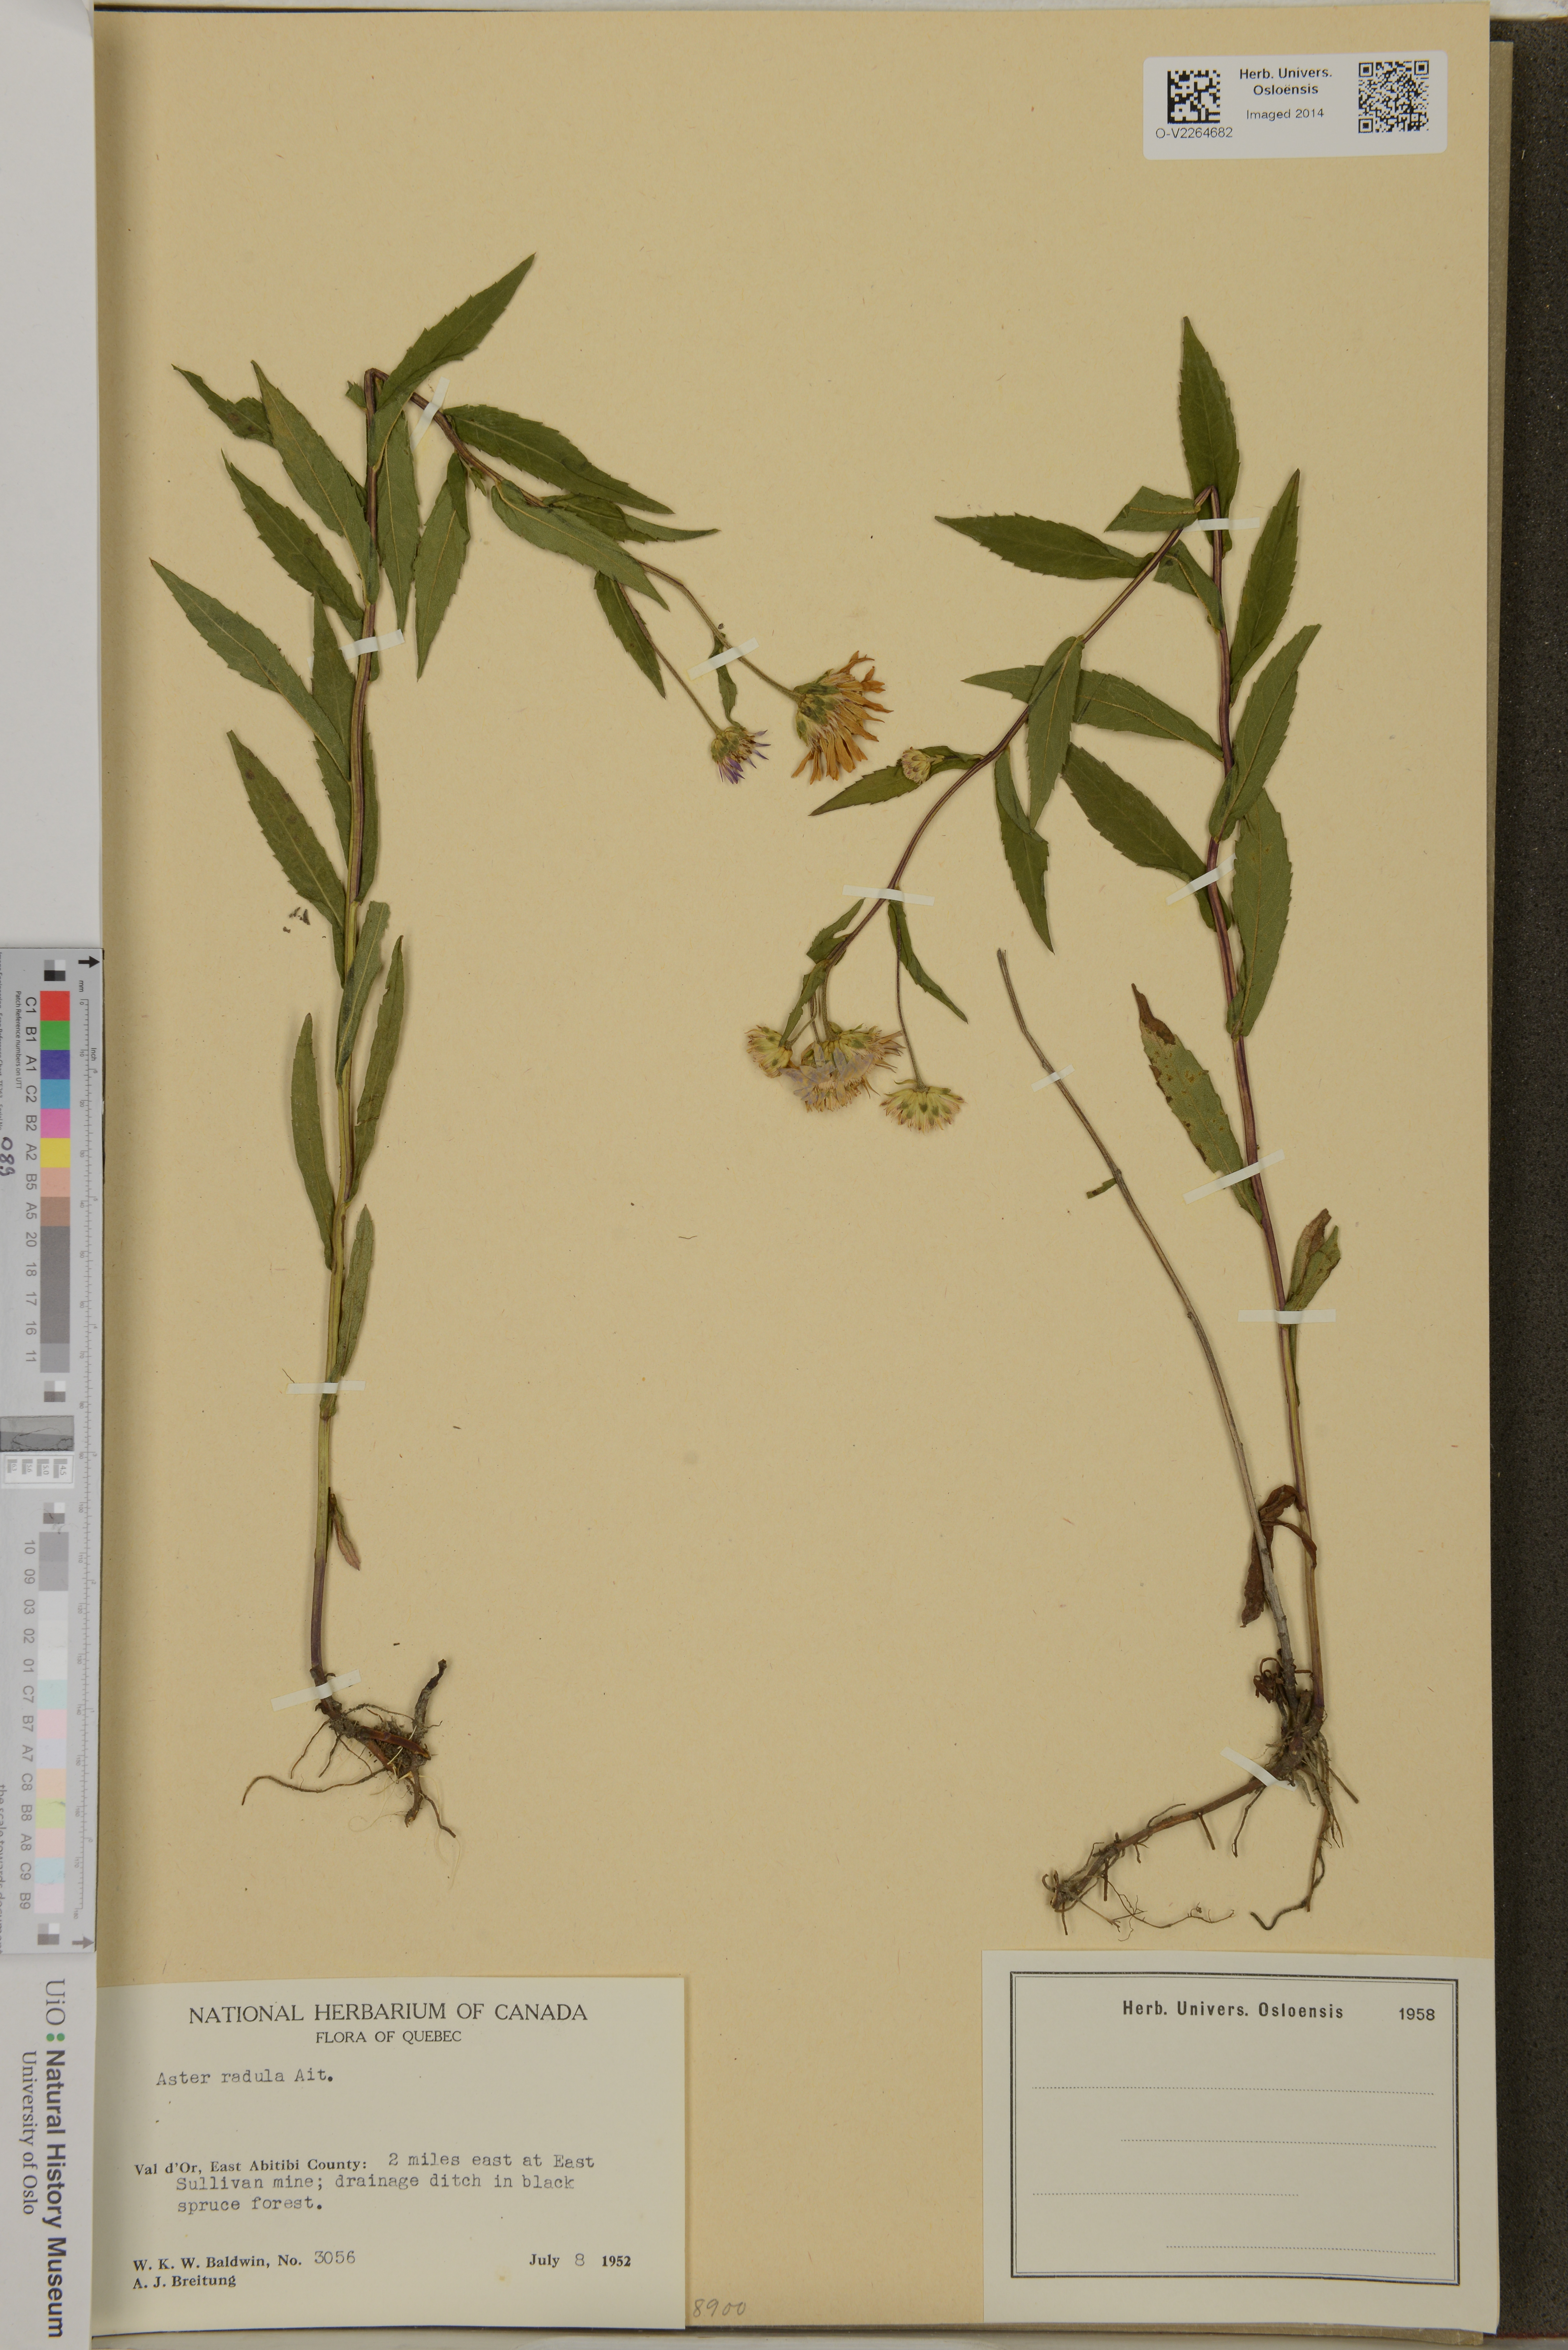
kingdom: Plantae
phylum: Tracheophyta
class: Magnoliopsida
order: Asterales
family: Asteraceae
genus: Eurybia
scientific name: Eurybia radula
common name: Low rough aster
